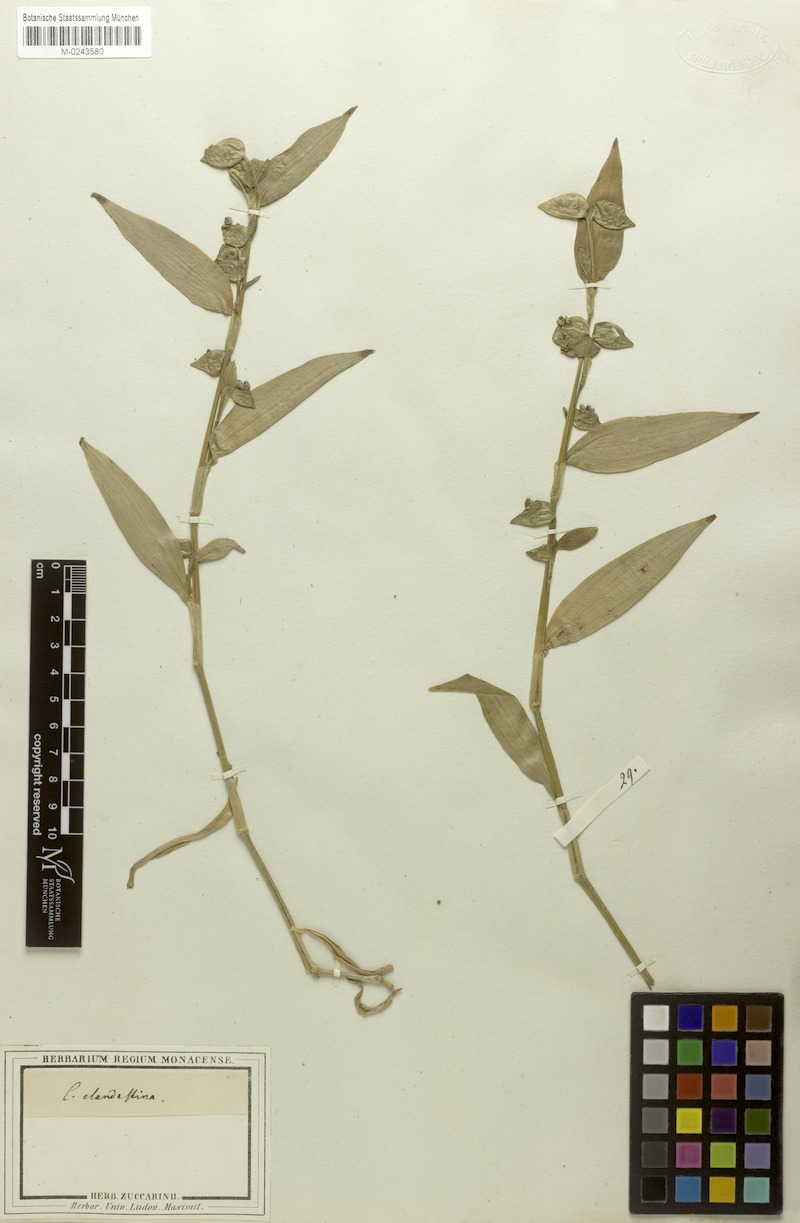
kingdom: Plantae
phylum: Tracheophyta
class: Liliopsida
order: Commelinales
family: Commelinaceae
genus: Commelina
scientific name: Commelina tuberosa
